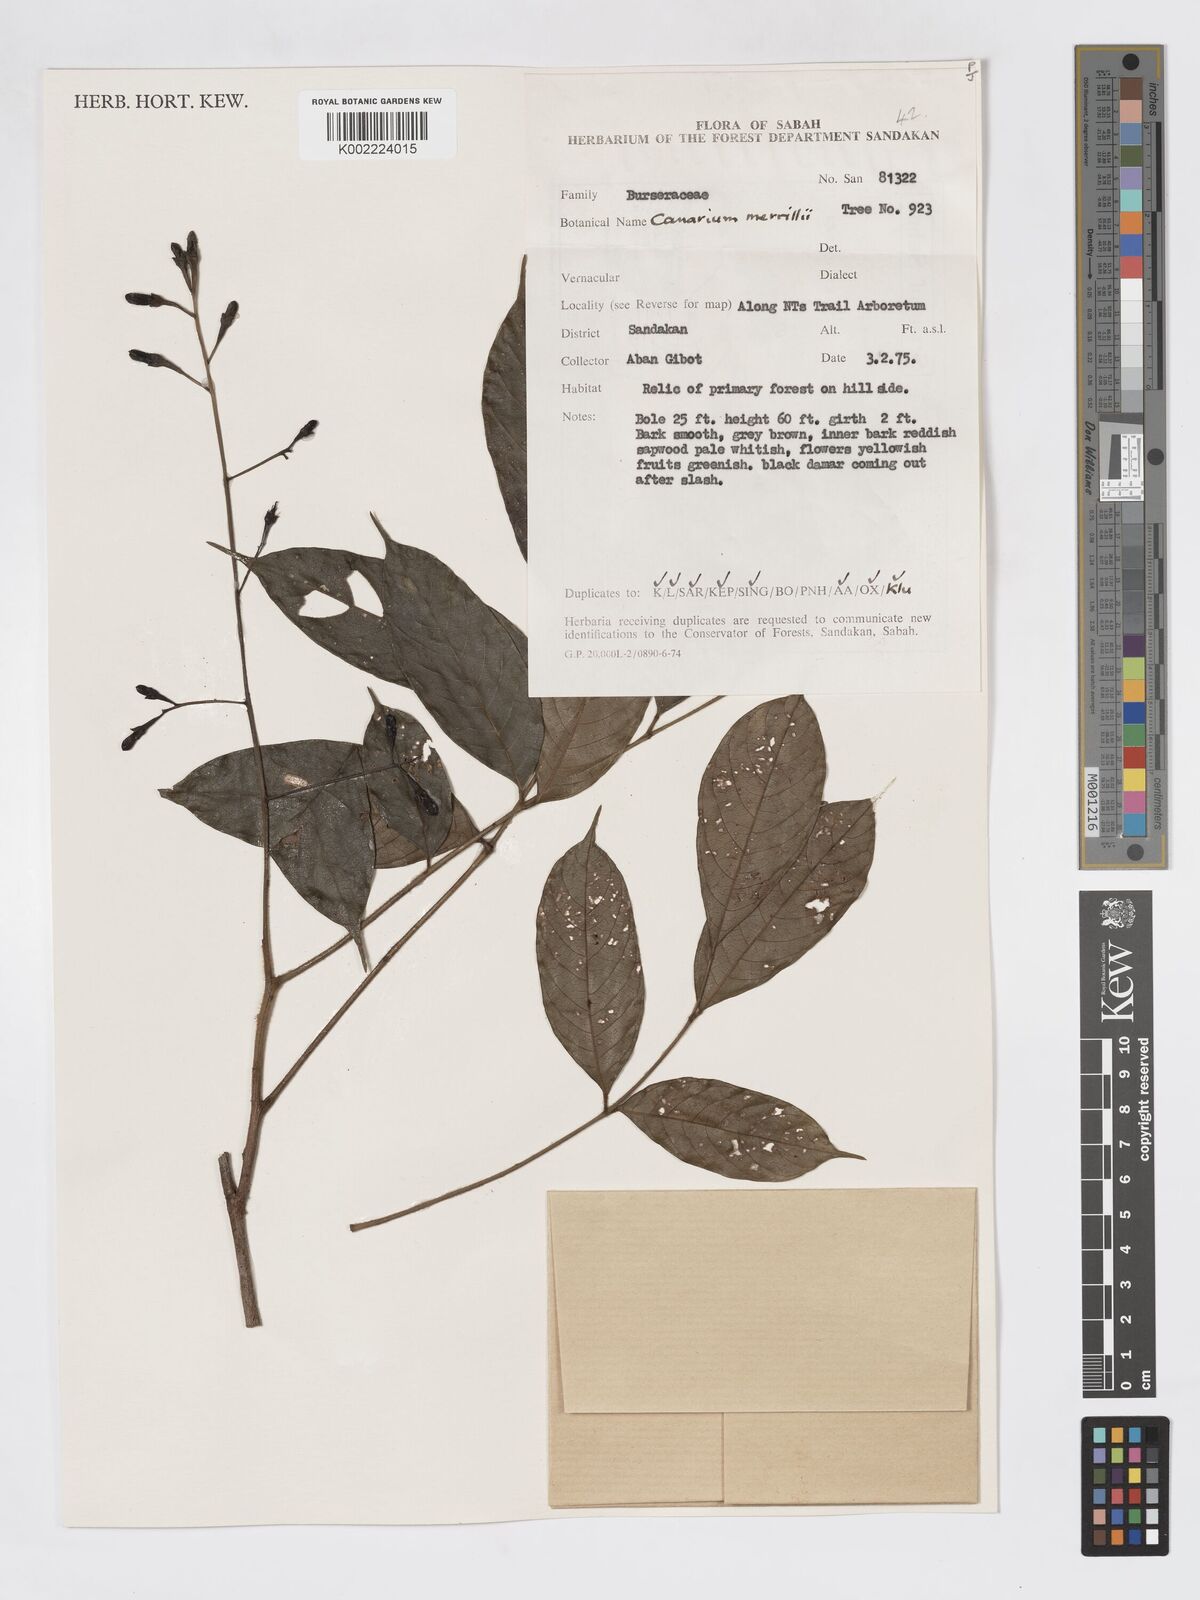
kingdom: Plantae
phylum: Tracheophyta
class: Magnoliopsida
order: Sapindales
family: Burseraceae
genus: Canarium
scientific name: Canarium merrillii
